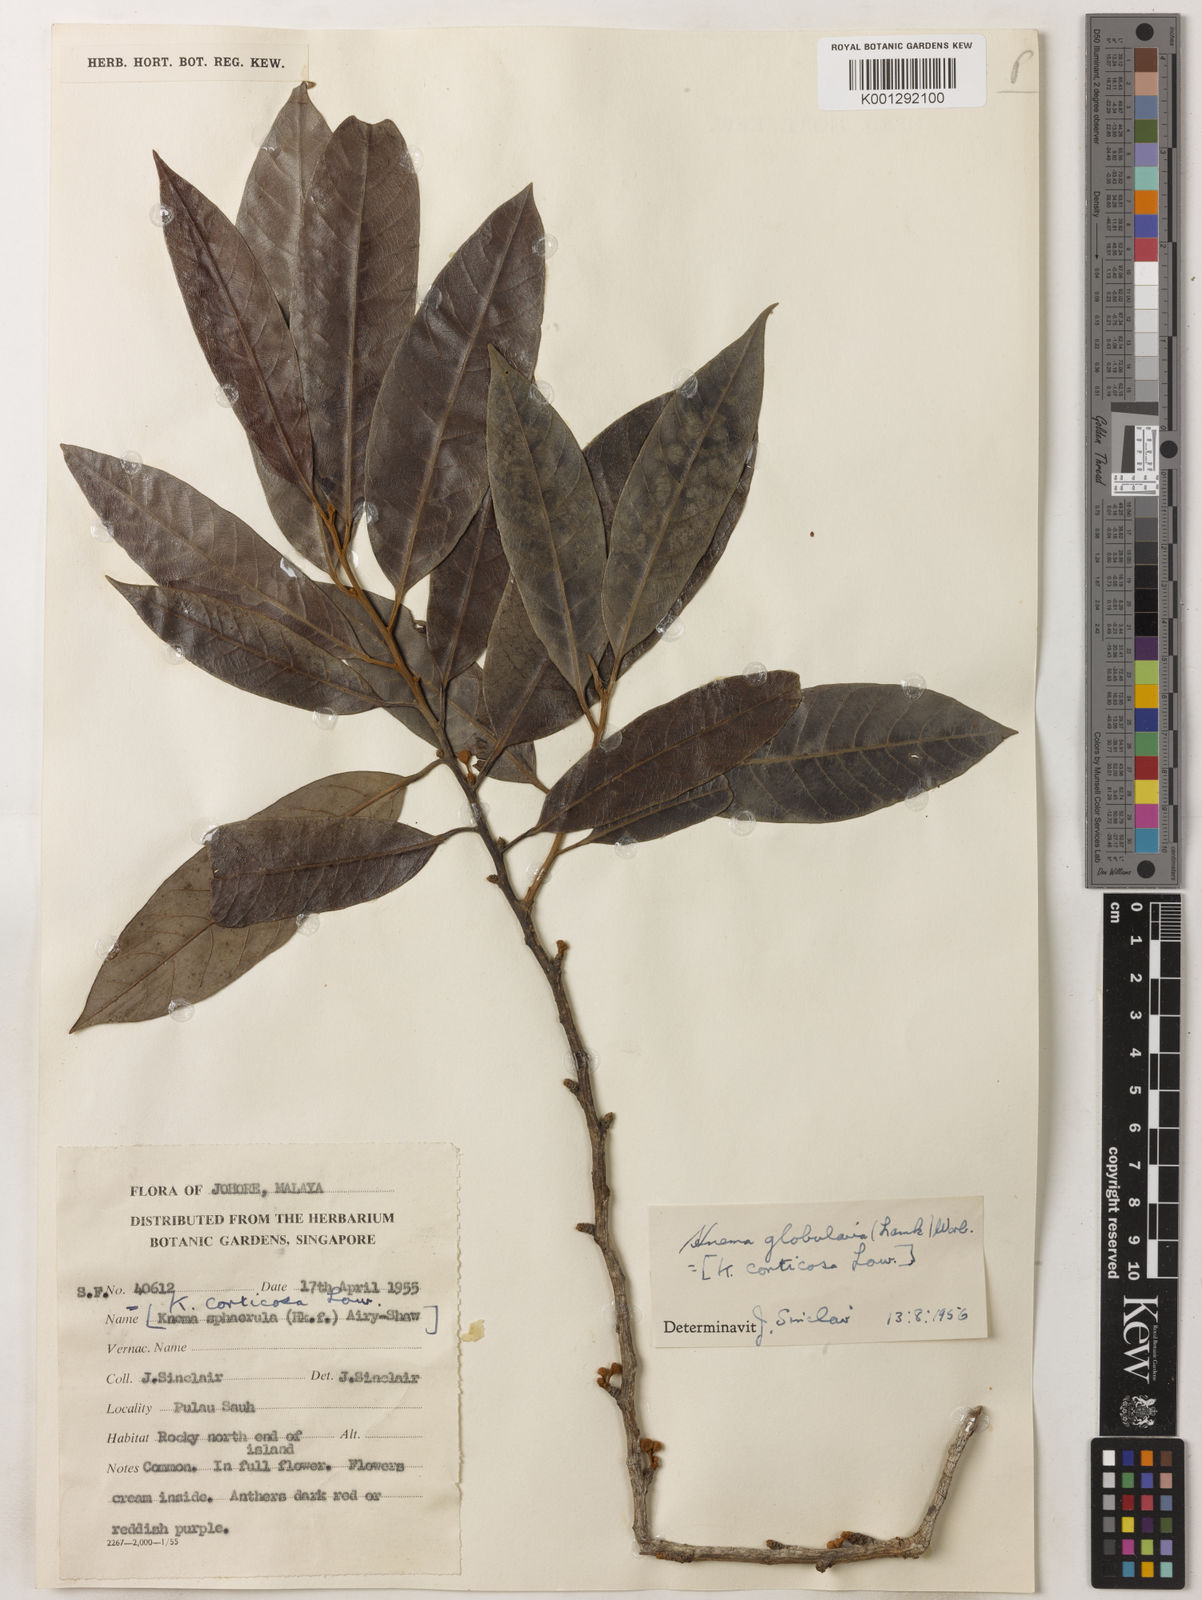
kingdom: Plantae
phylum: Tracheophyta
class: Magnoliopsida
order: Magnoliales
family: Myristicaceae
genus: Knema
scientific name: Knema globularia
